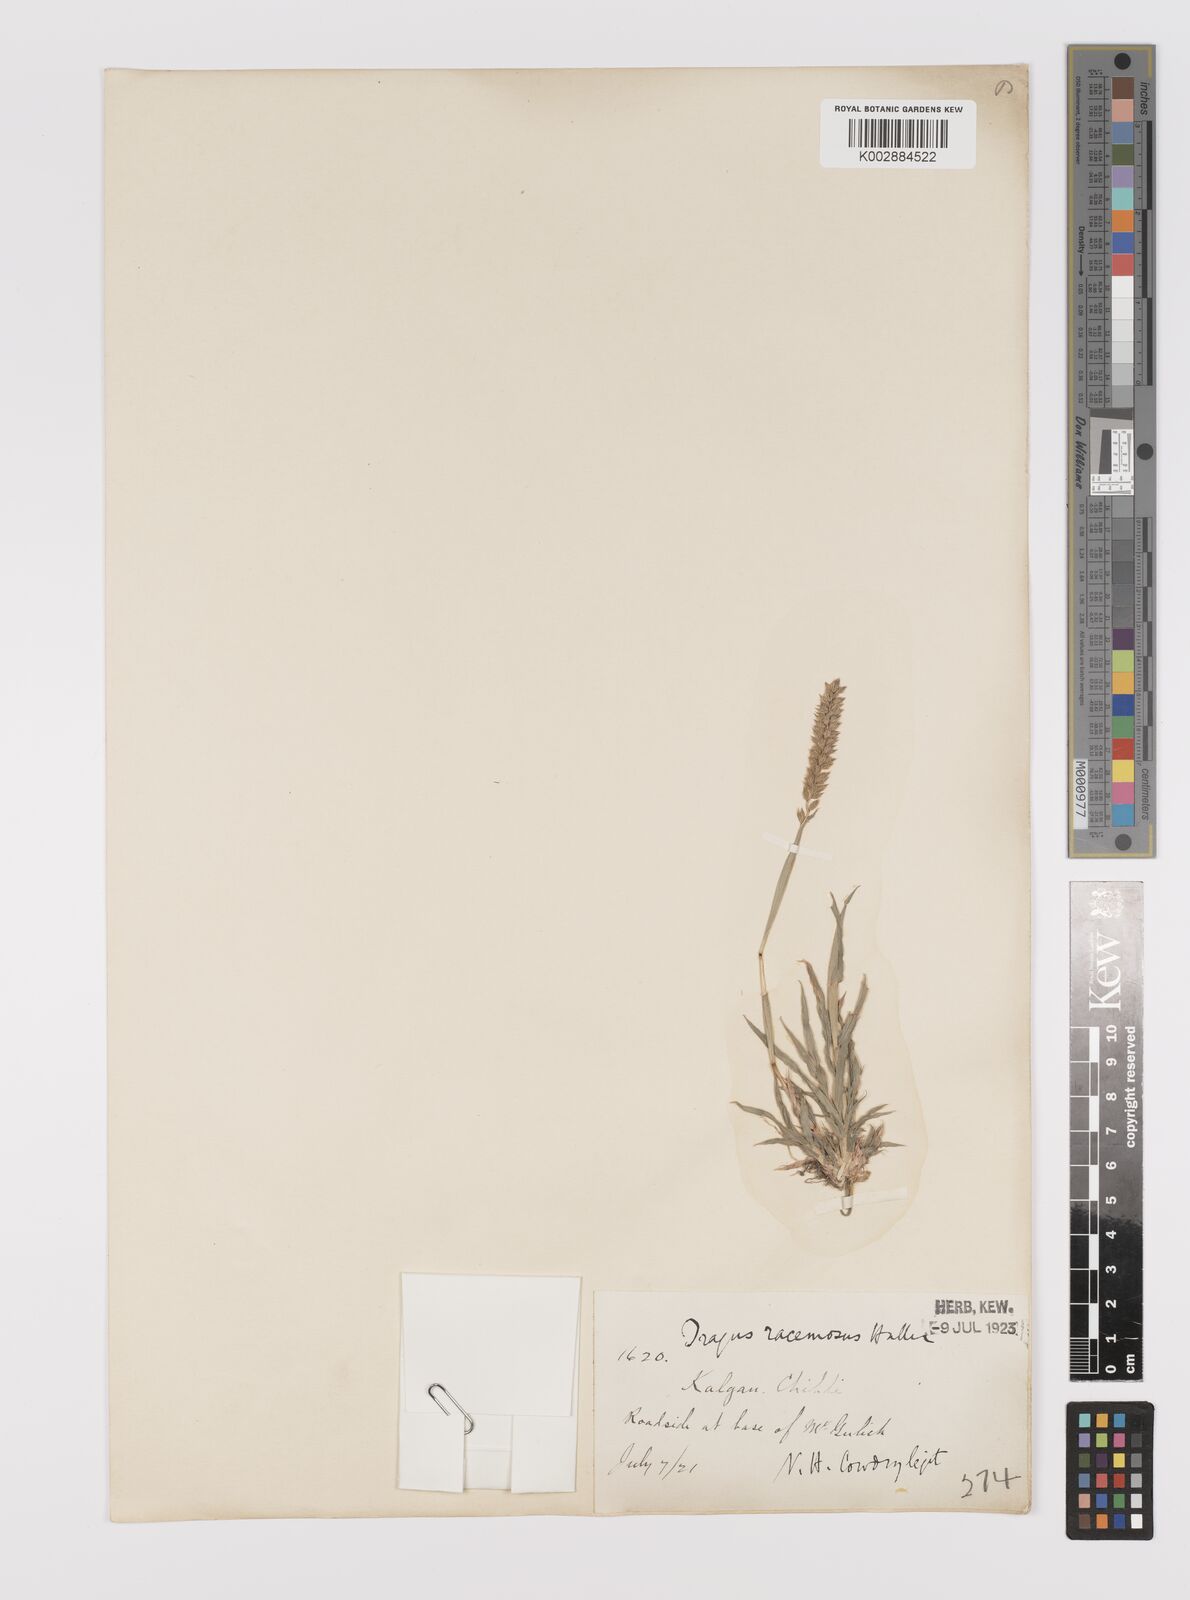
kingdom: Plantae
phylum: Tracheophyta
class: Liliopsida
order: Poales
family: Poaceae
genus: Tragus
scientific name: Tragus mongolorum
